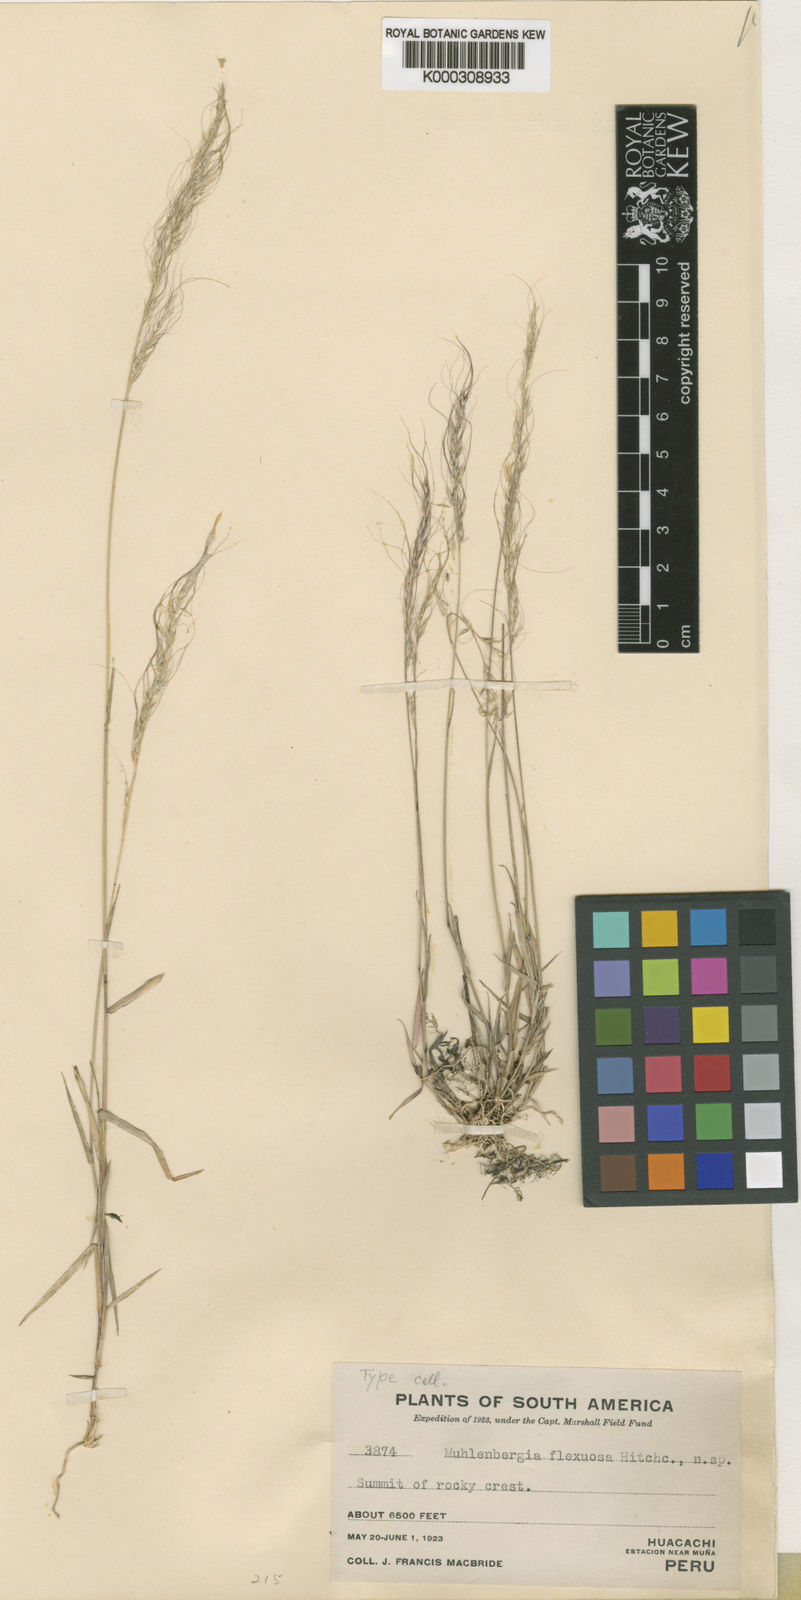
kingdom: Plantae
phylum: Tracheophyta
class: Liliopsida
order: Poales
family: Poaceae
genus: Muhlenbergia
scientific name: Muhlenbergia flexuosa
